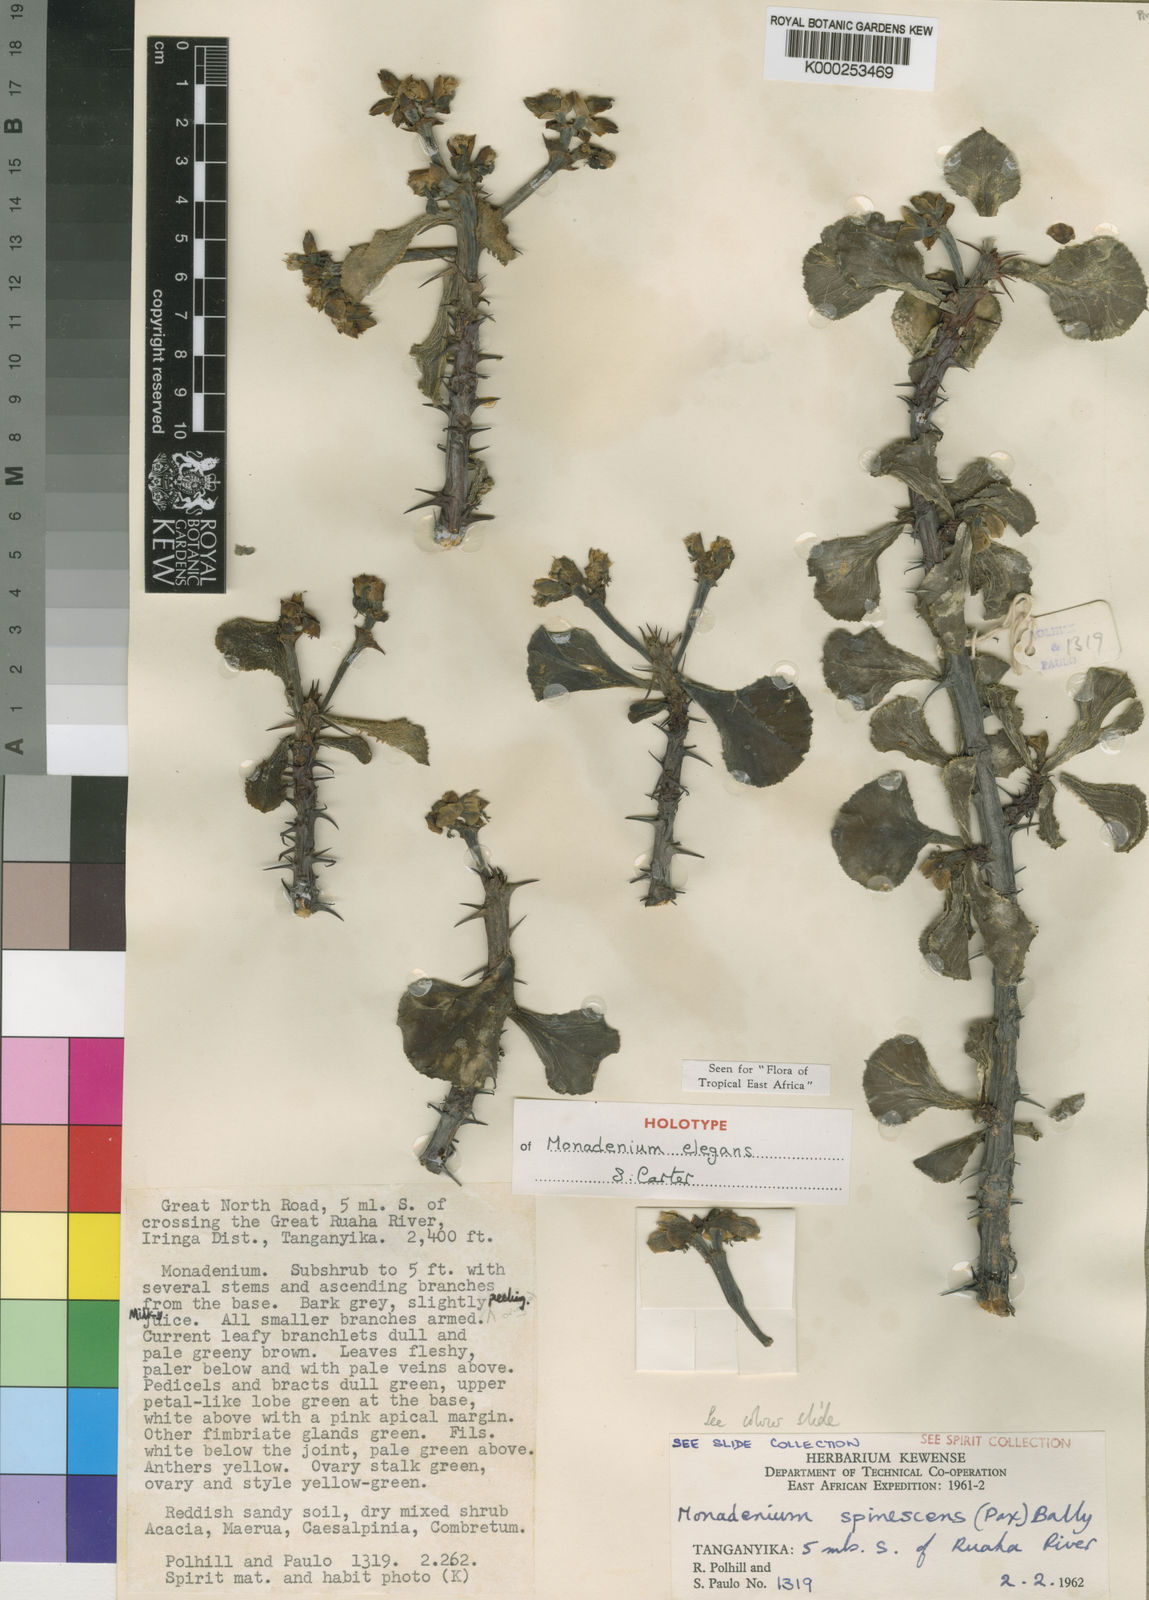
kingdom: Plantae
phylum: Tracheophyta
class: Magnoliopsida
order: Malpighiales
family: Euphorbiaceae
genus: Euphorbia
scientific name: Euphorbia biselegans
